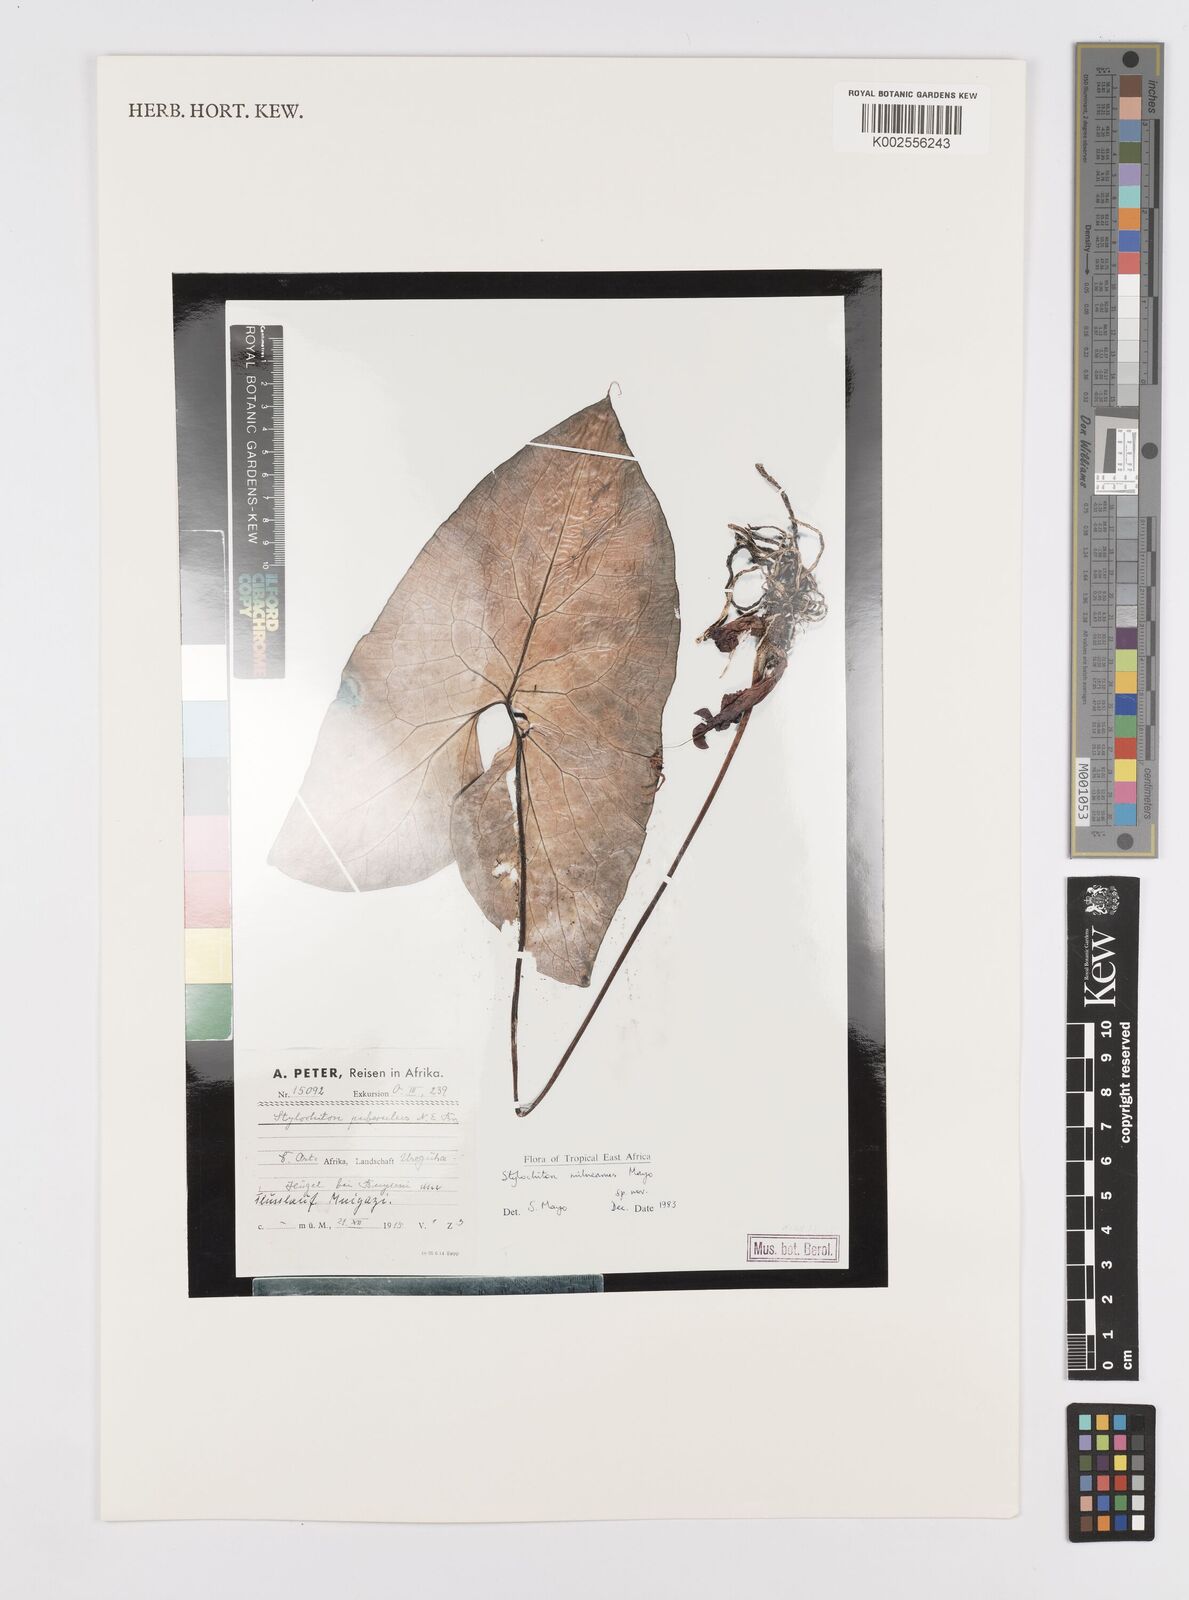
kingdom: Plantae
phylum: Tracheophyta
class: Liliopsida
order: Alismatales
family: Araceae
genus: Stylochaeton
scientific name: Stylochaeton milneanum
